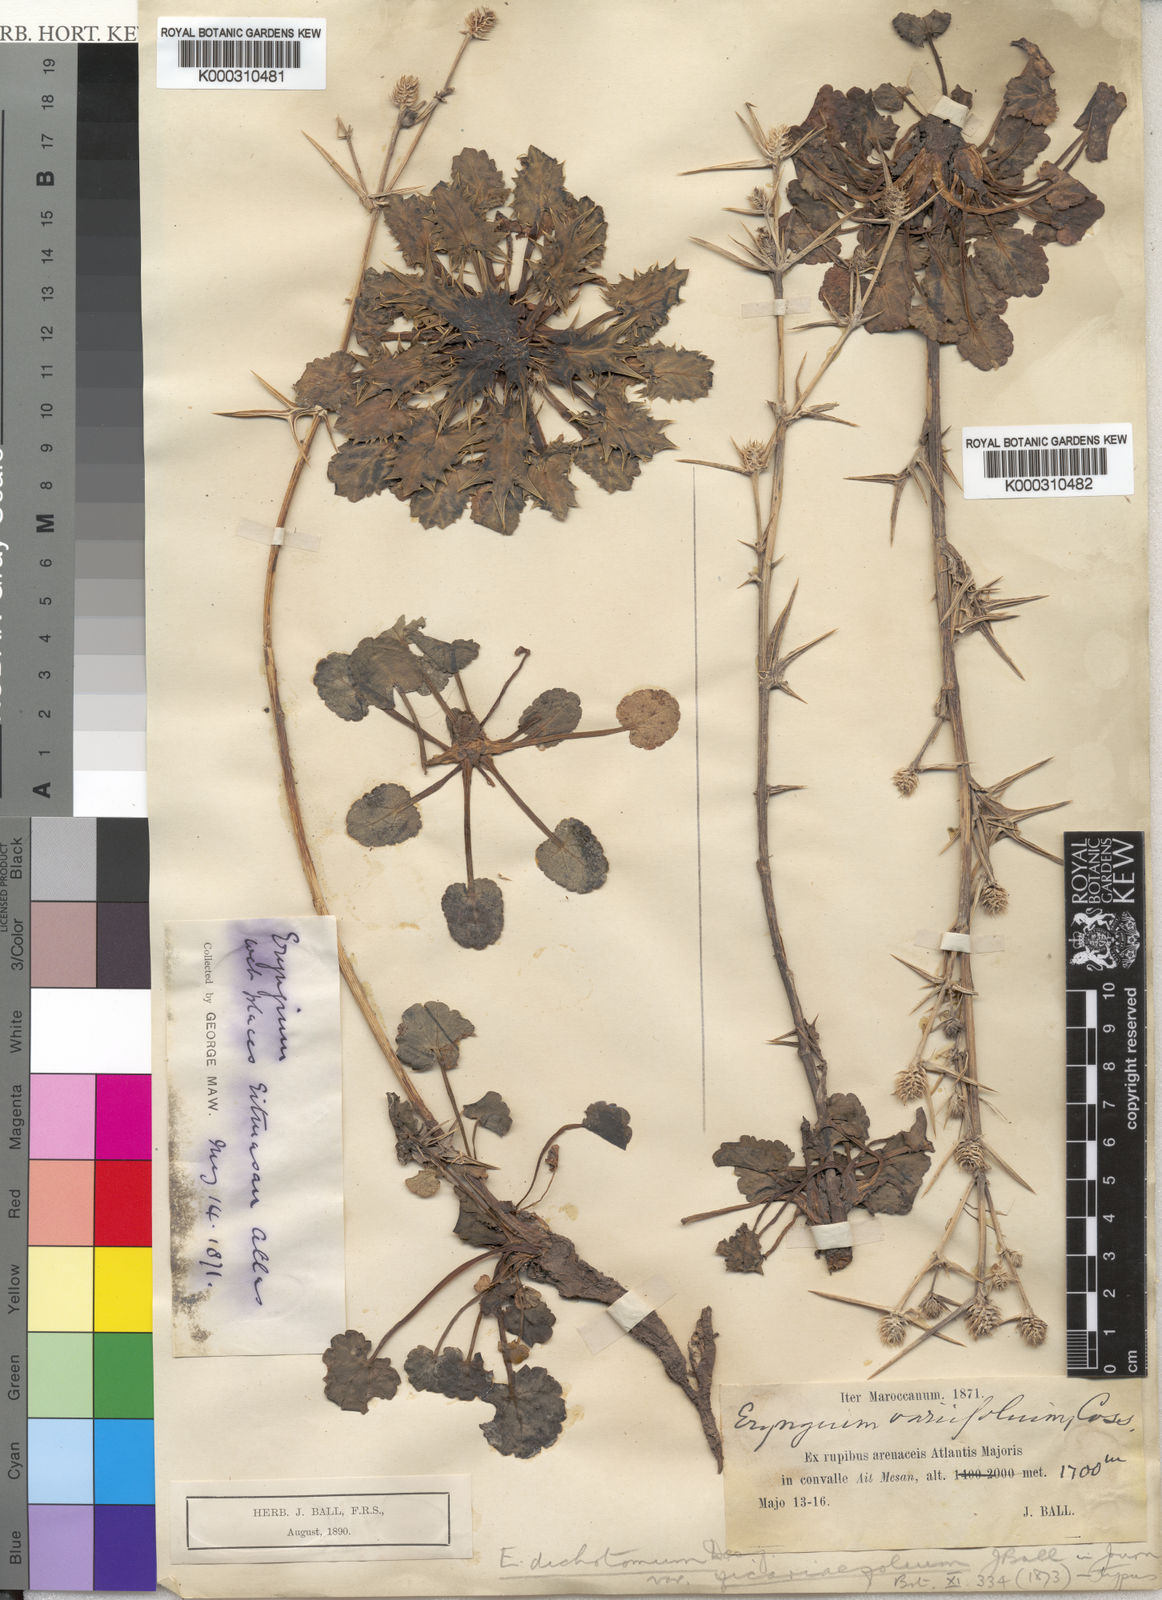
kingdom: Plantae
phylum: Tracheophyta
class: Magnoliopsida
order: Apiales
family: Apiaceae
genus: Eryngium
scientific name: Eryngium variifolium
